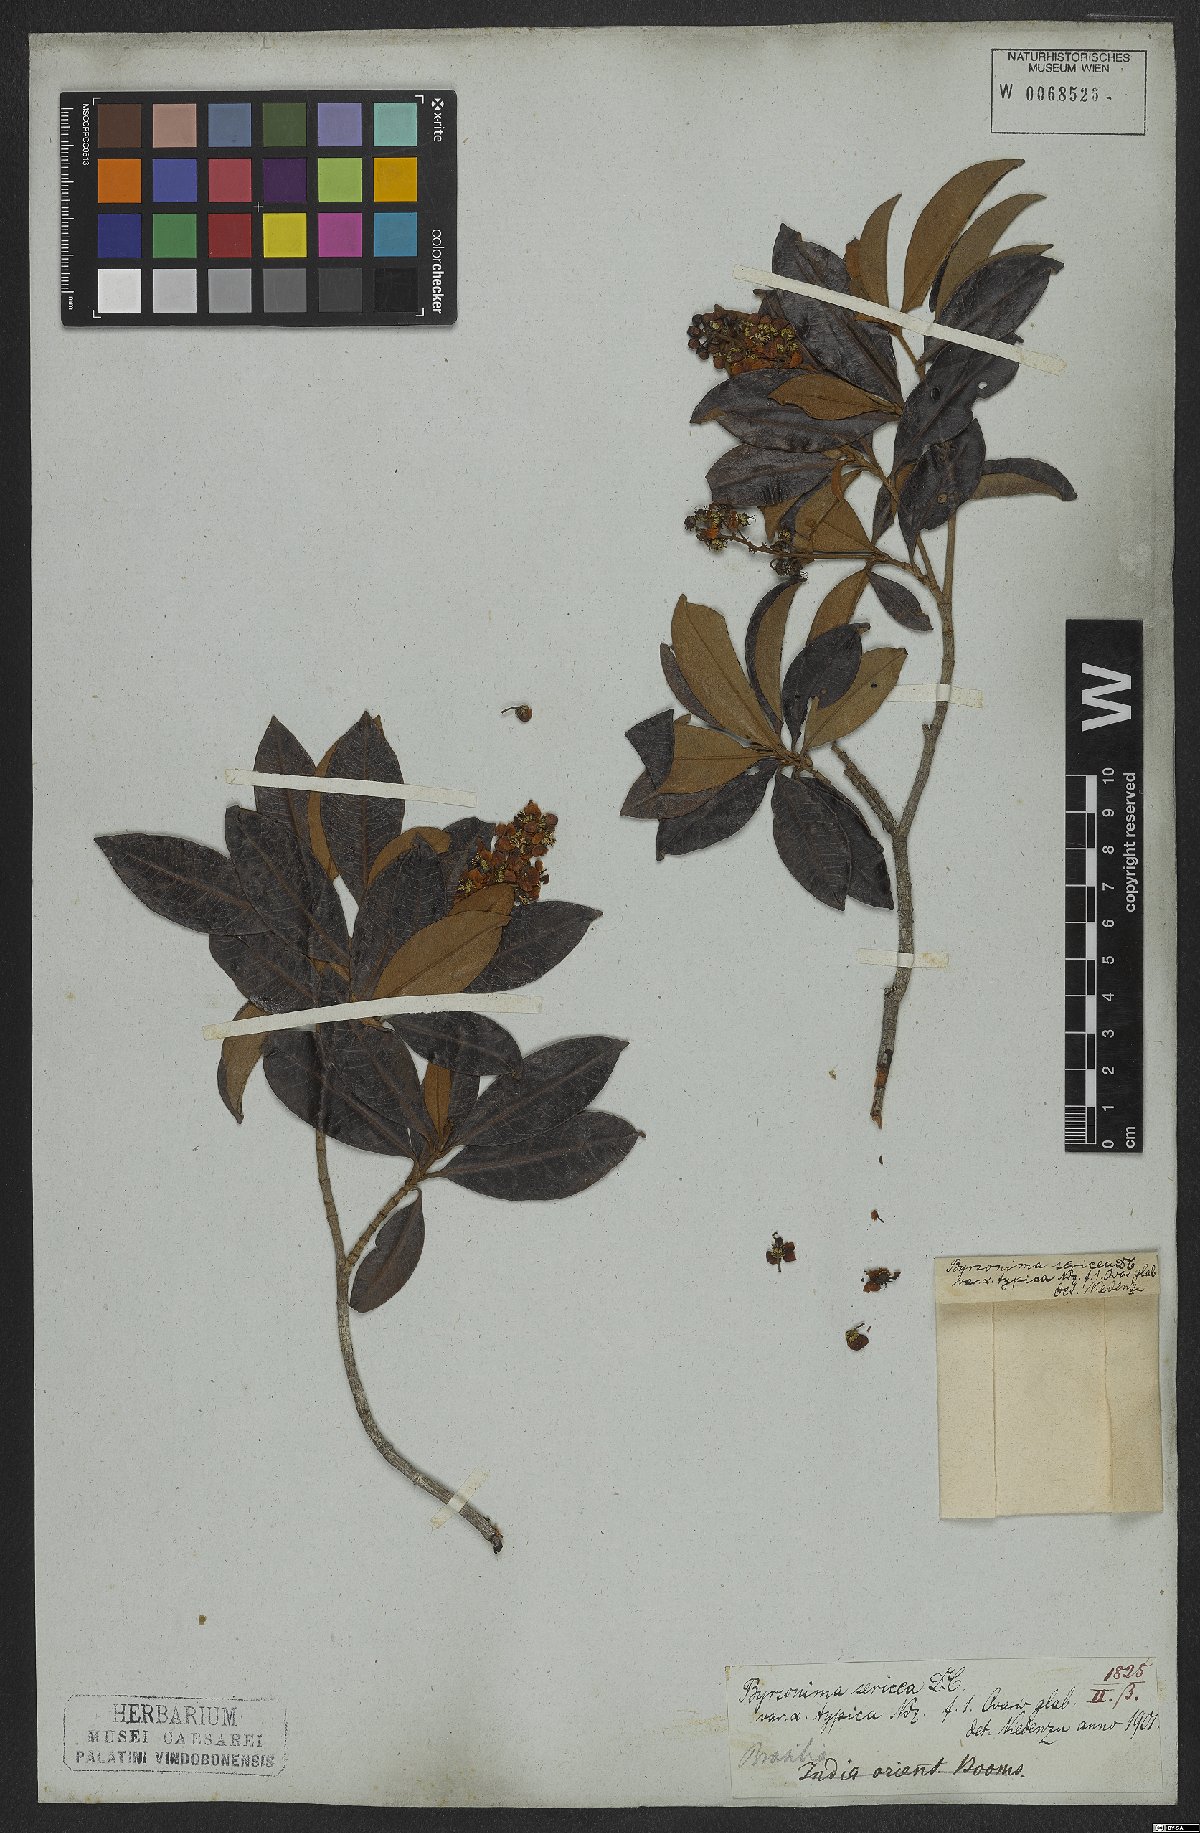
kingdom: Plantae
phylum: Tracheophyta
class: Magnoliopsida
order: Malpighiales
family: Malpighiaceae
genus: Byrsonima
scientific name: Byrsonima sericea
